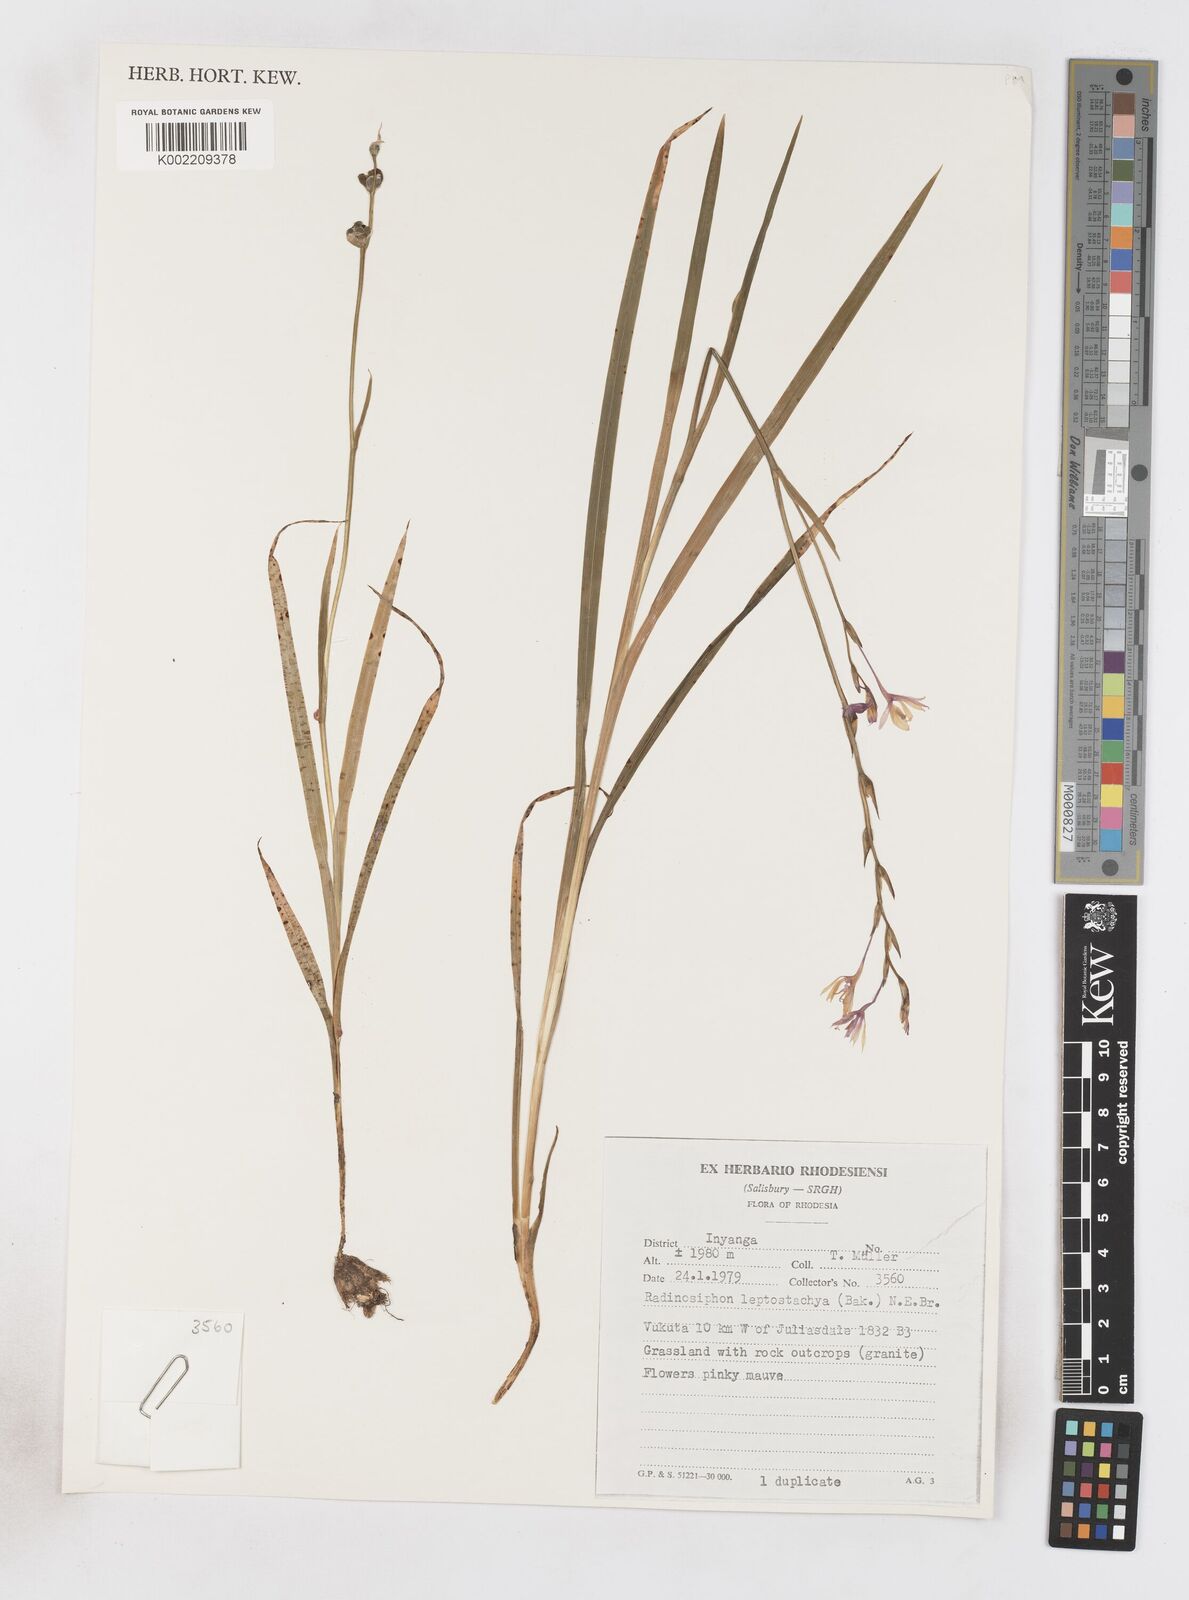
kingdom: Plantae
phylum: Tracheophyta
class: Liliopsida
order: Asparagales
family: Iridaceae
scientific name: Iridaceae
